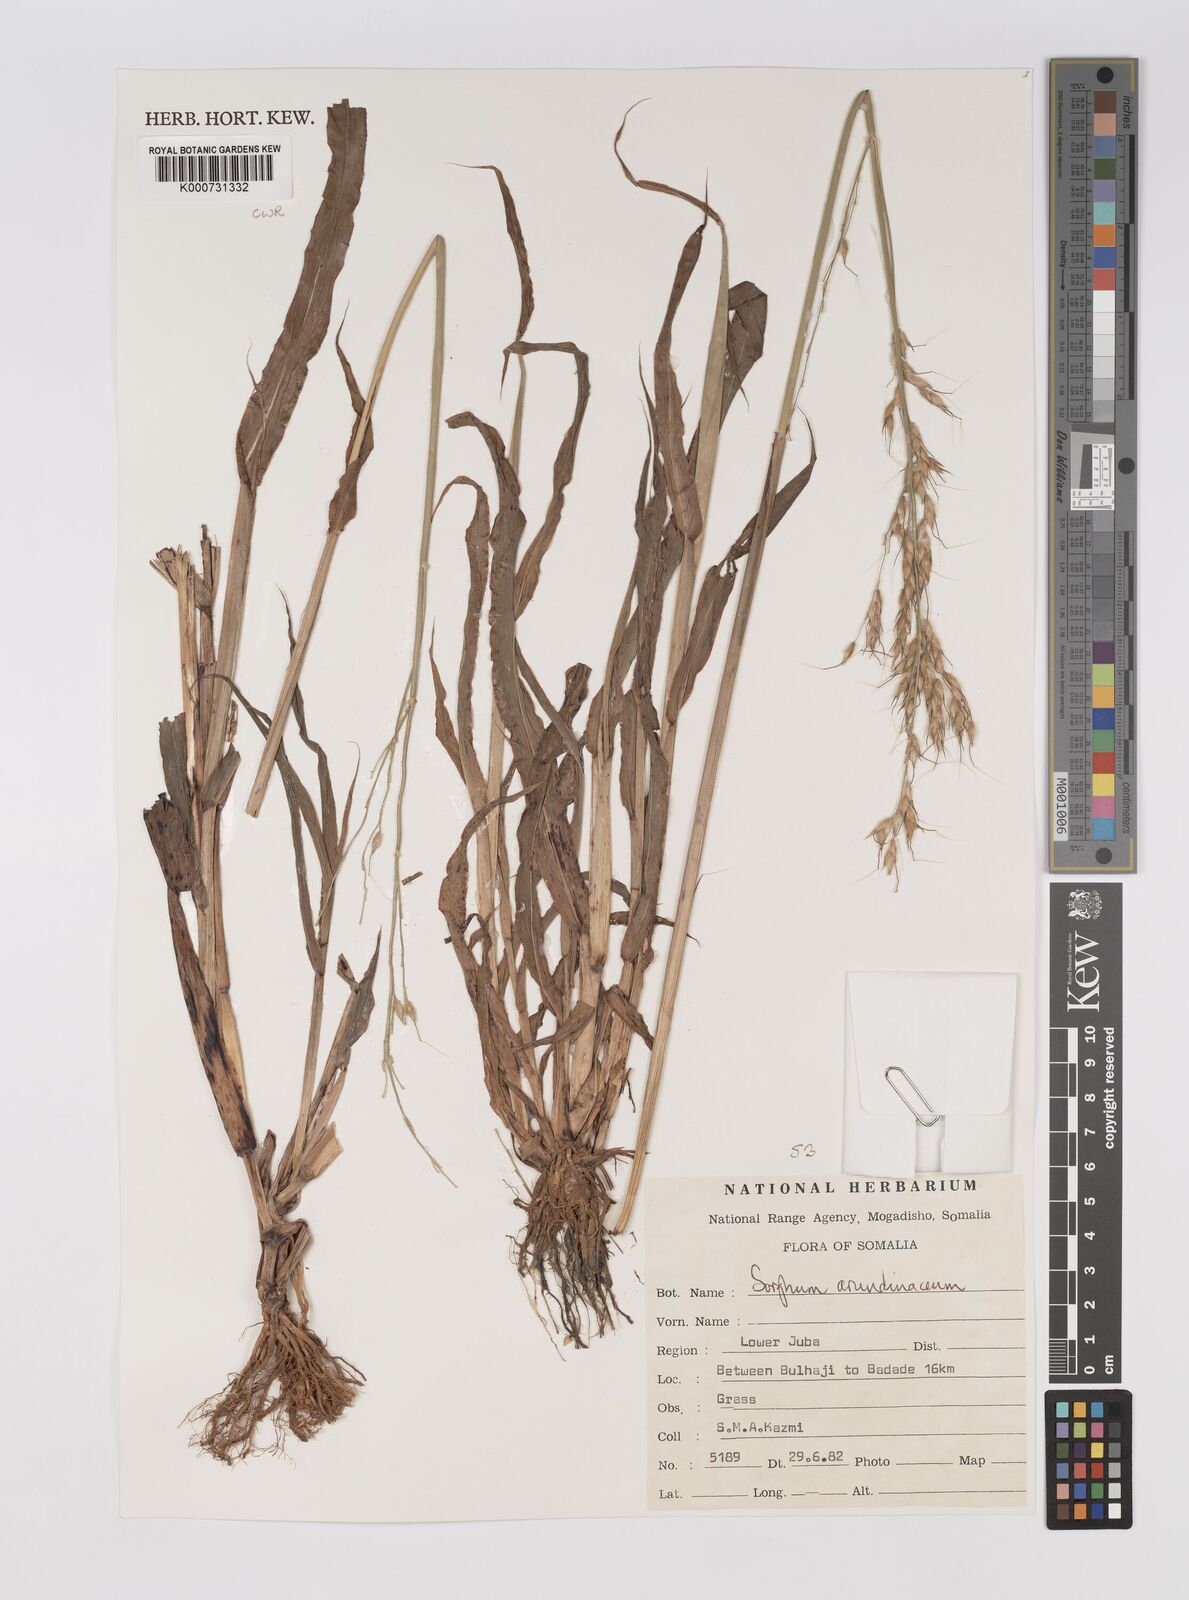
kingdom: Plantae
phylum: Tracheophyta
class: Liliopsida
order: Poales
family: Poaceae
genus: Sorghum
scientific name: Sorghum arundinaceum
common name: Sorghum
